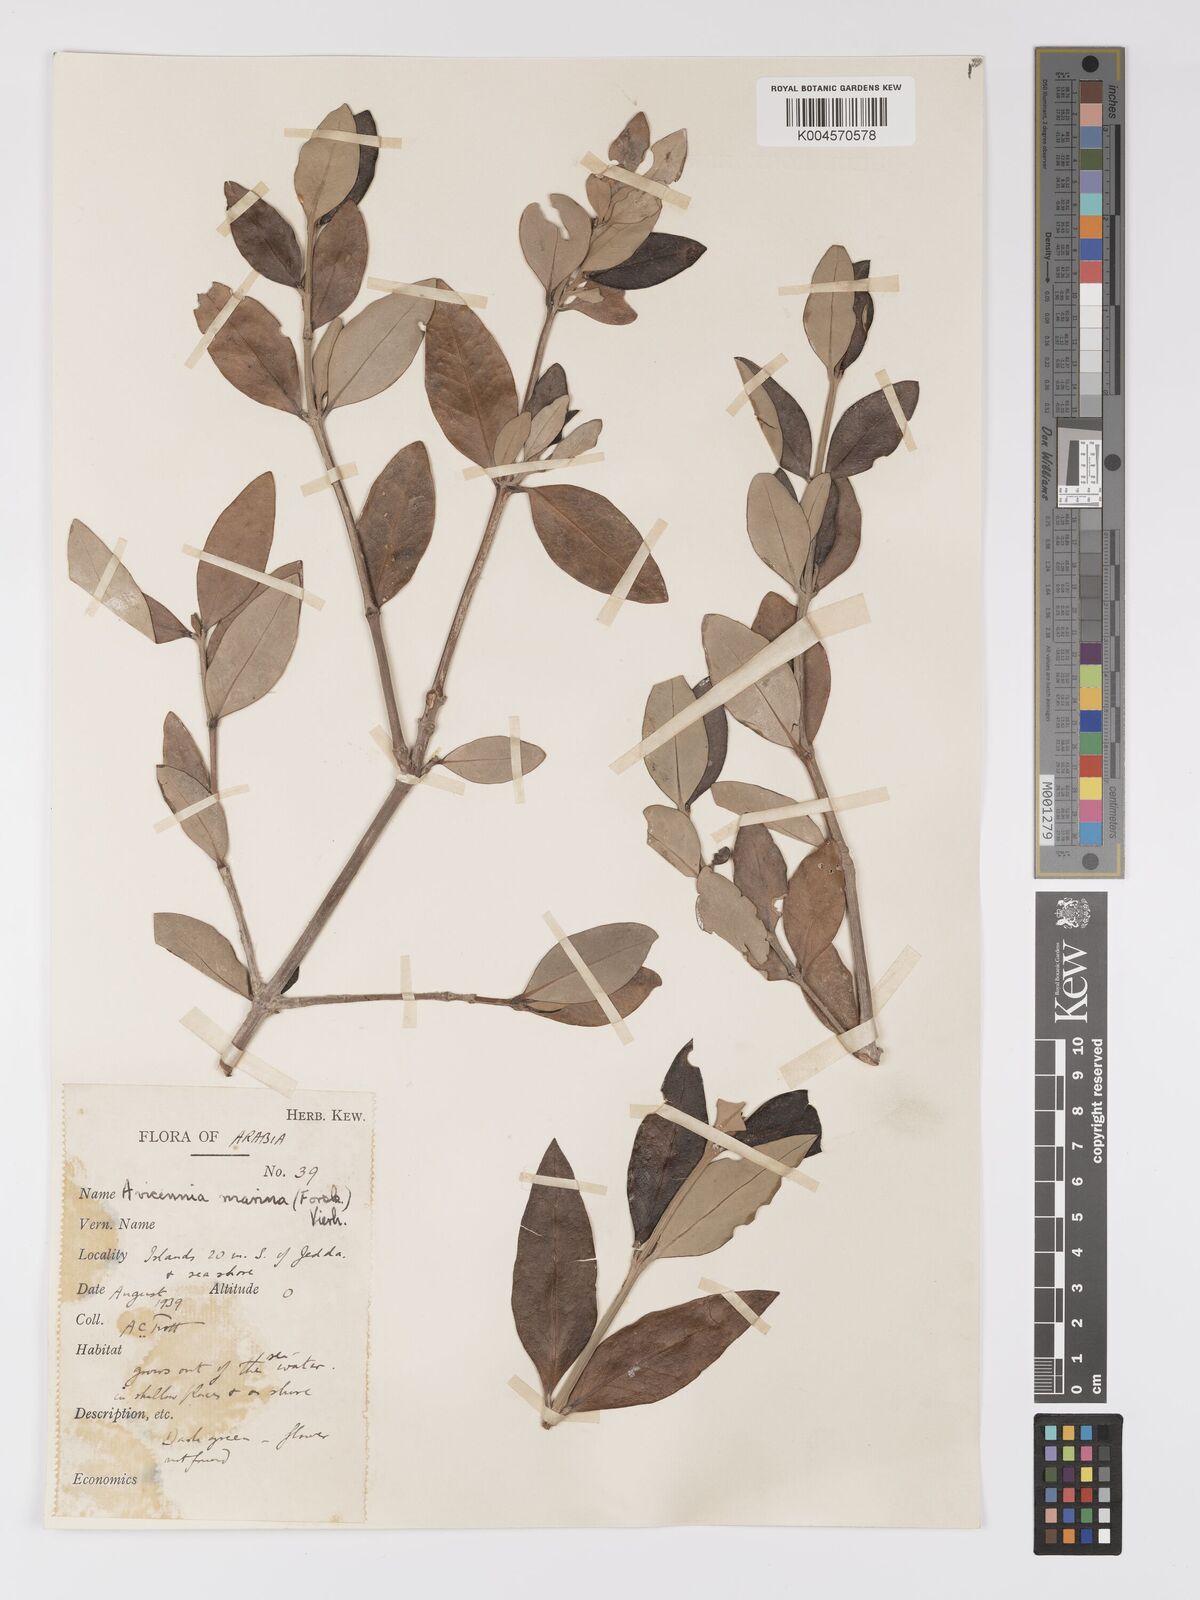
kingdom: Plantae
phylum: Tracheophyta
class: Magnoliopsida
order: Lamiales
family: Acanthaceae
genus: Avicennia
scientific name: Avicennia marina
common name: Gray mangrove
